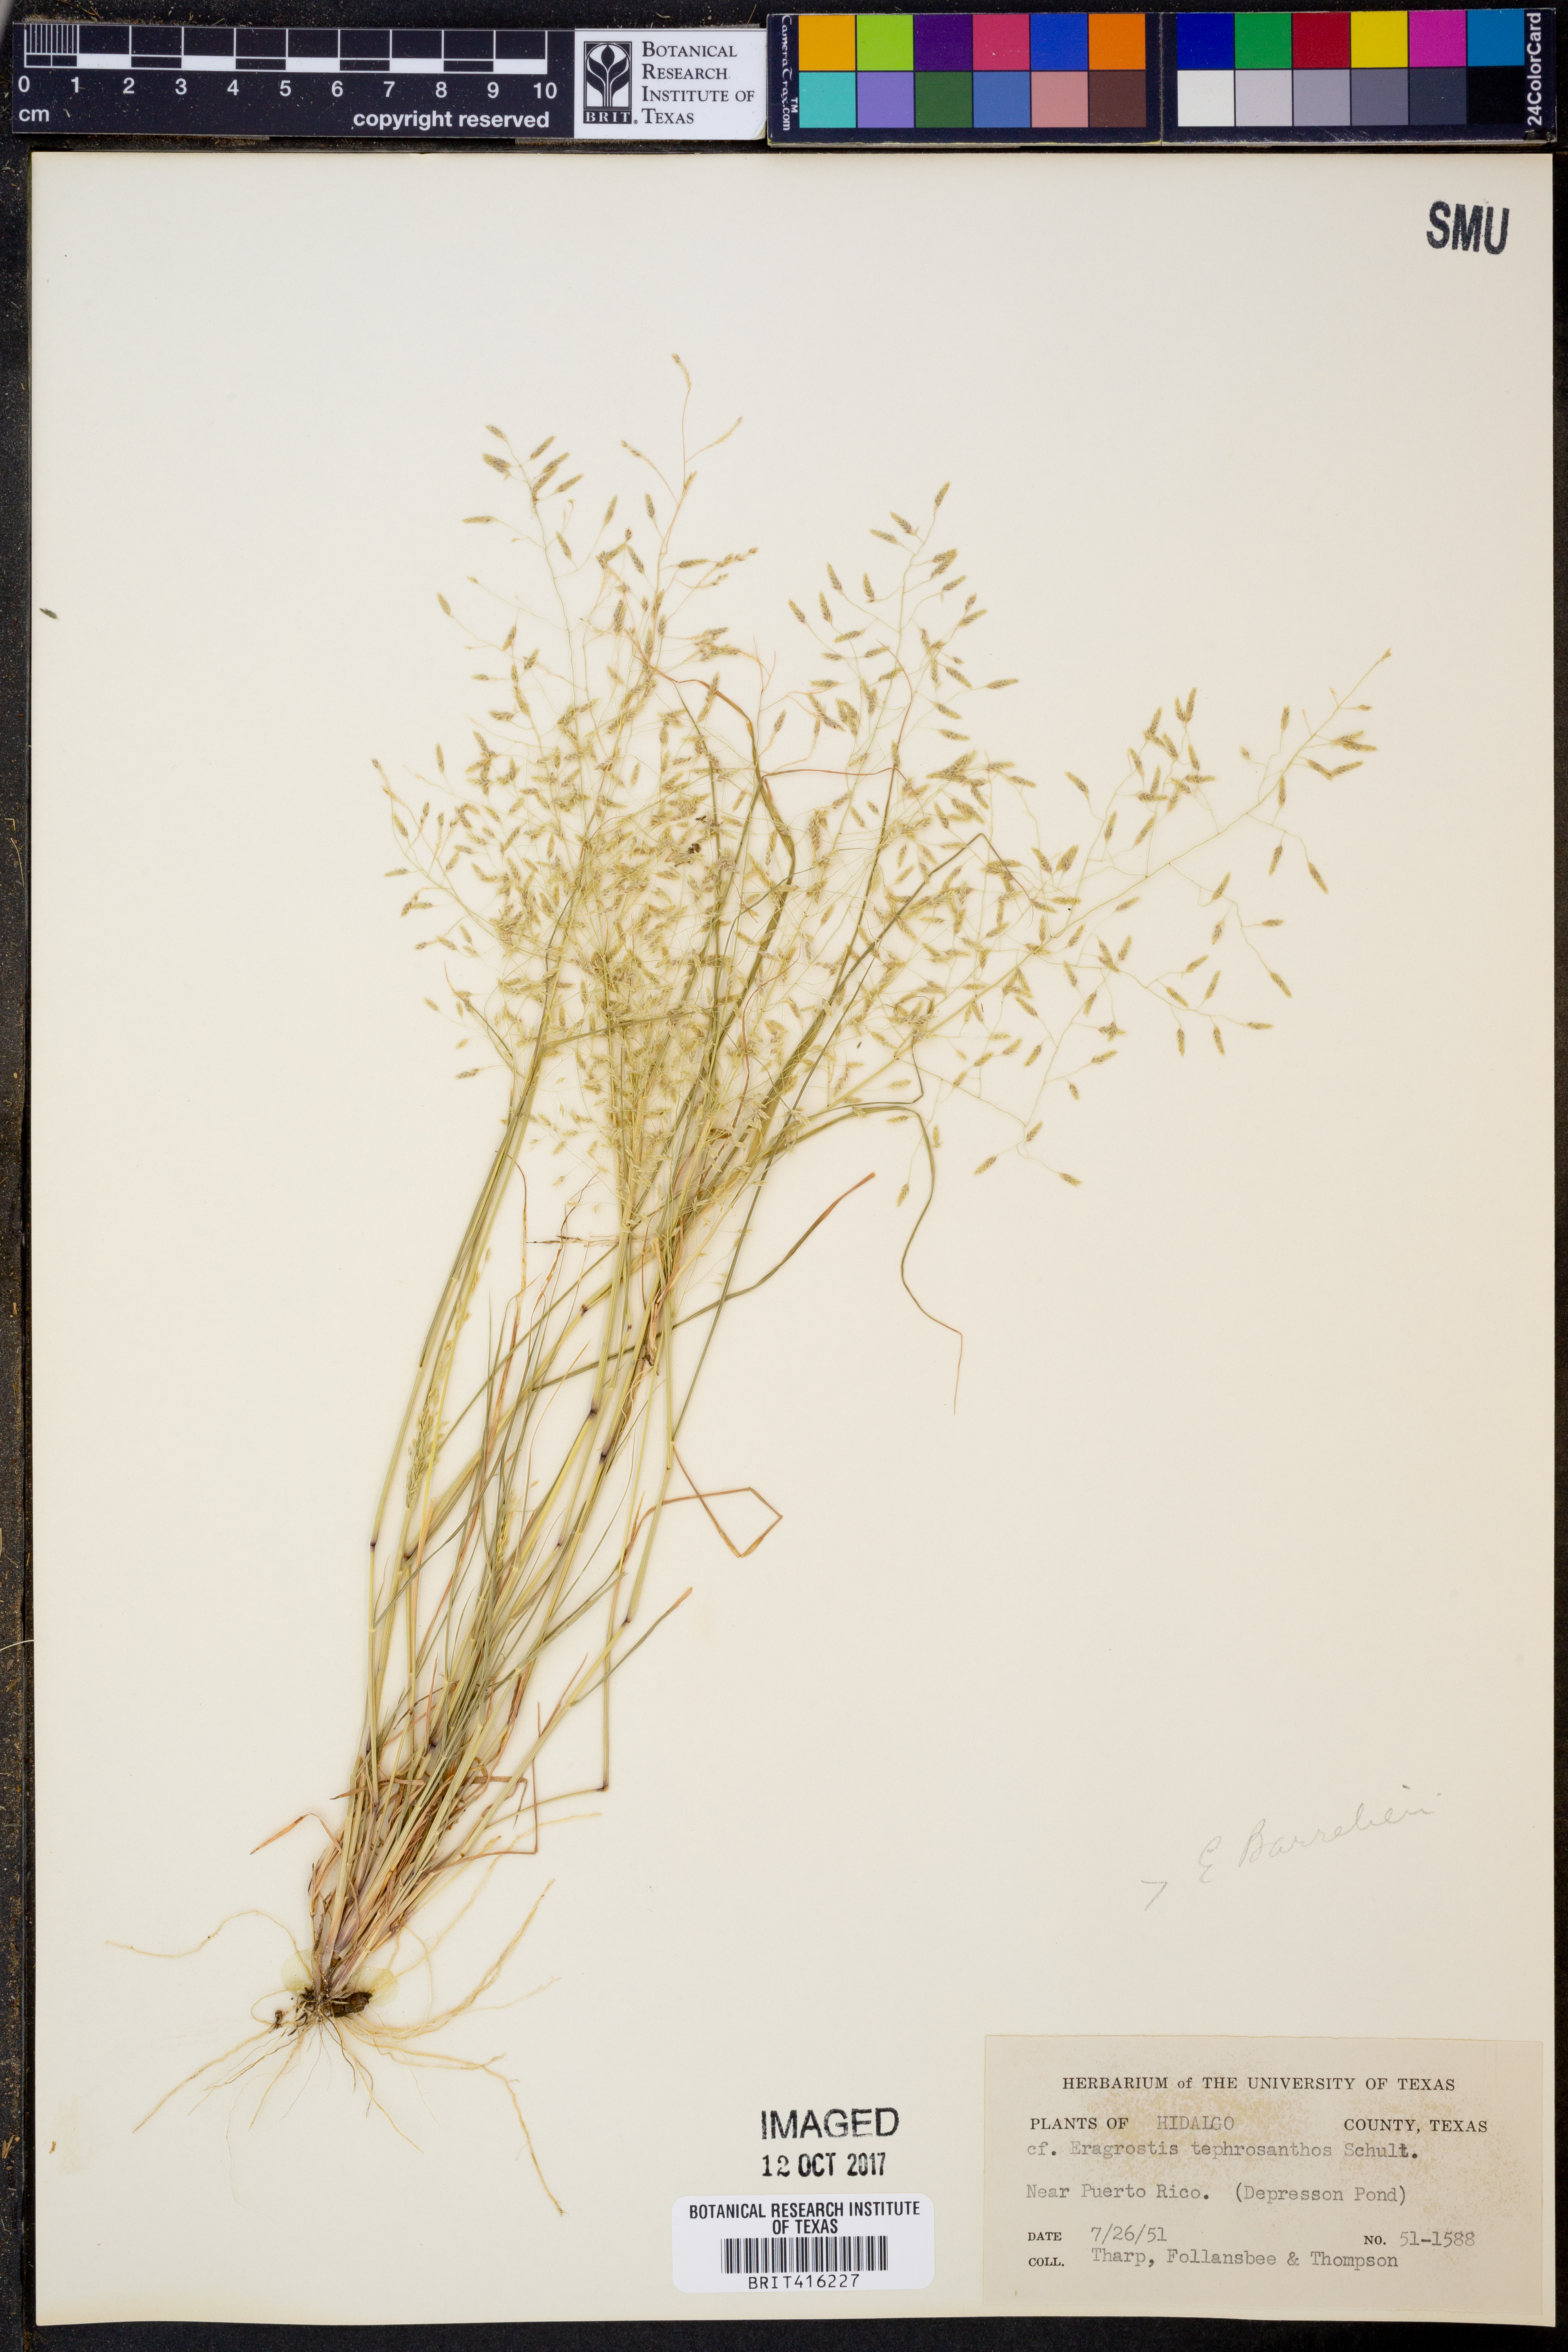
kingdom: Plantae
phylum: Tracheophyta
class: Liliopsida
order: Poales
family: Poaceae
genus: Eragrostis
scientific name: Eragrostis tephrosanthos
